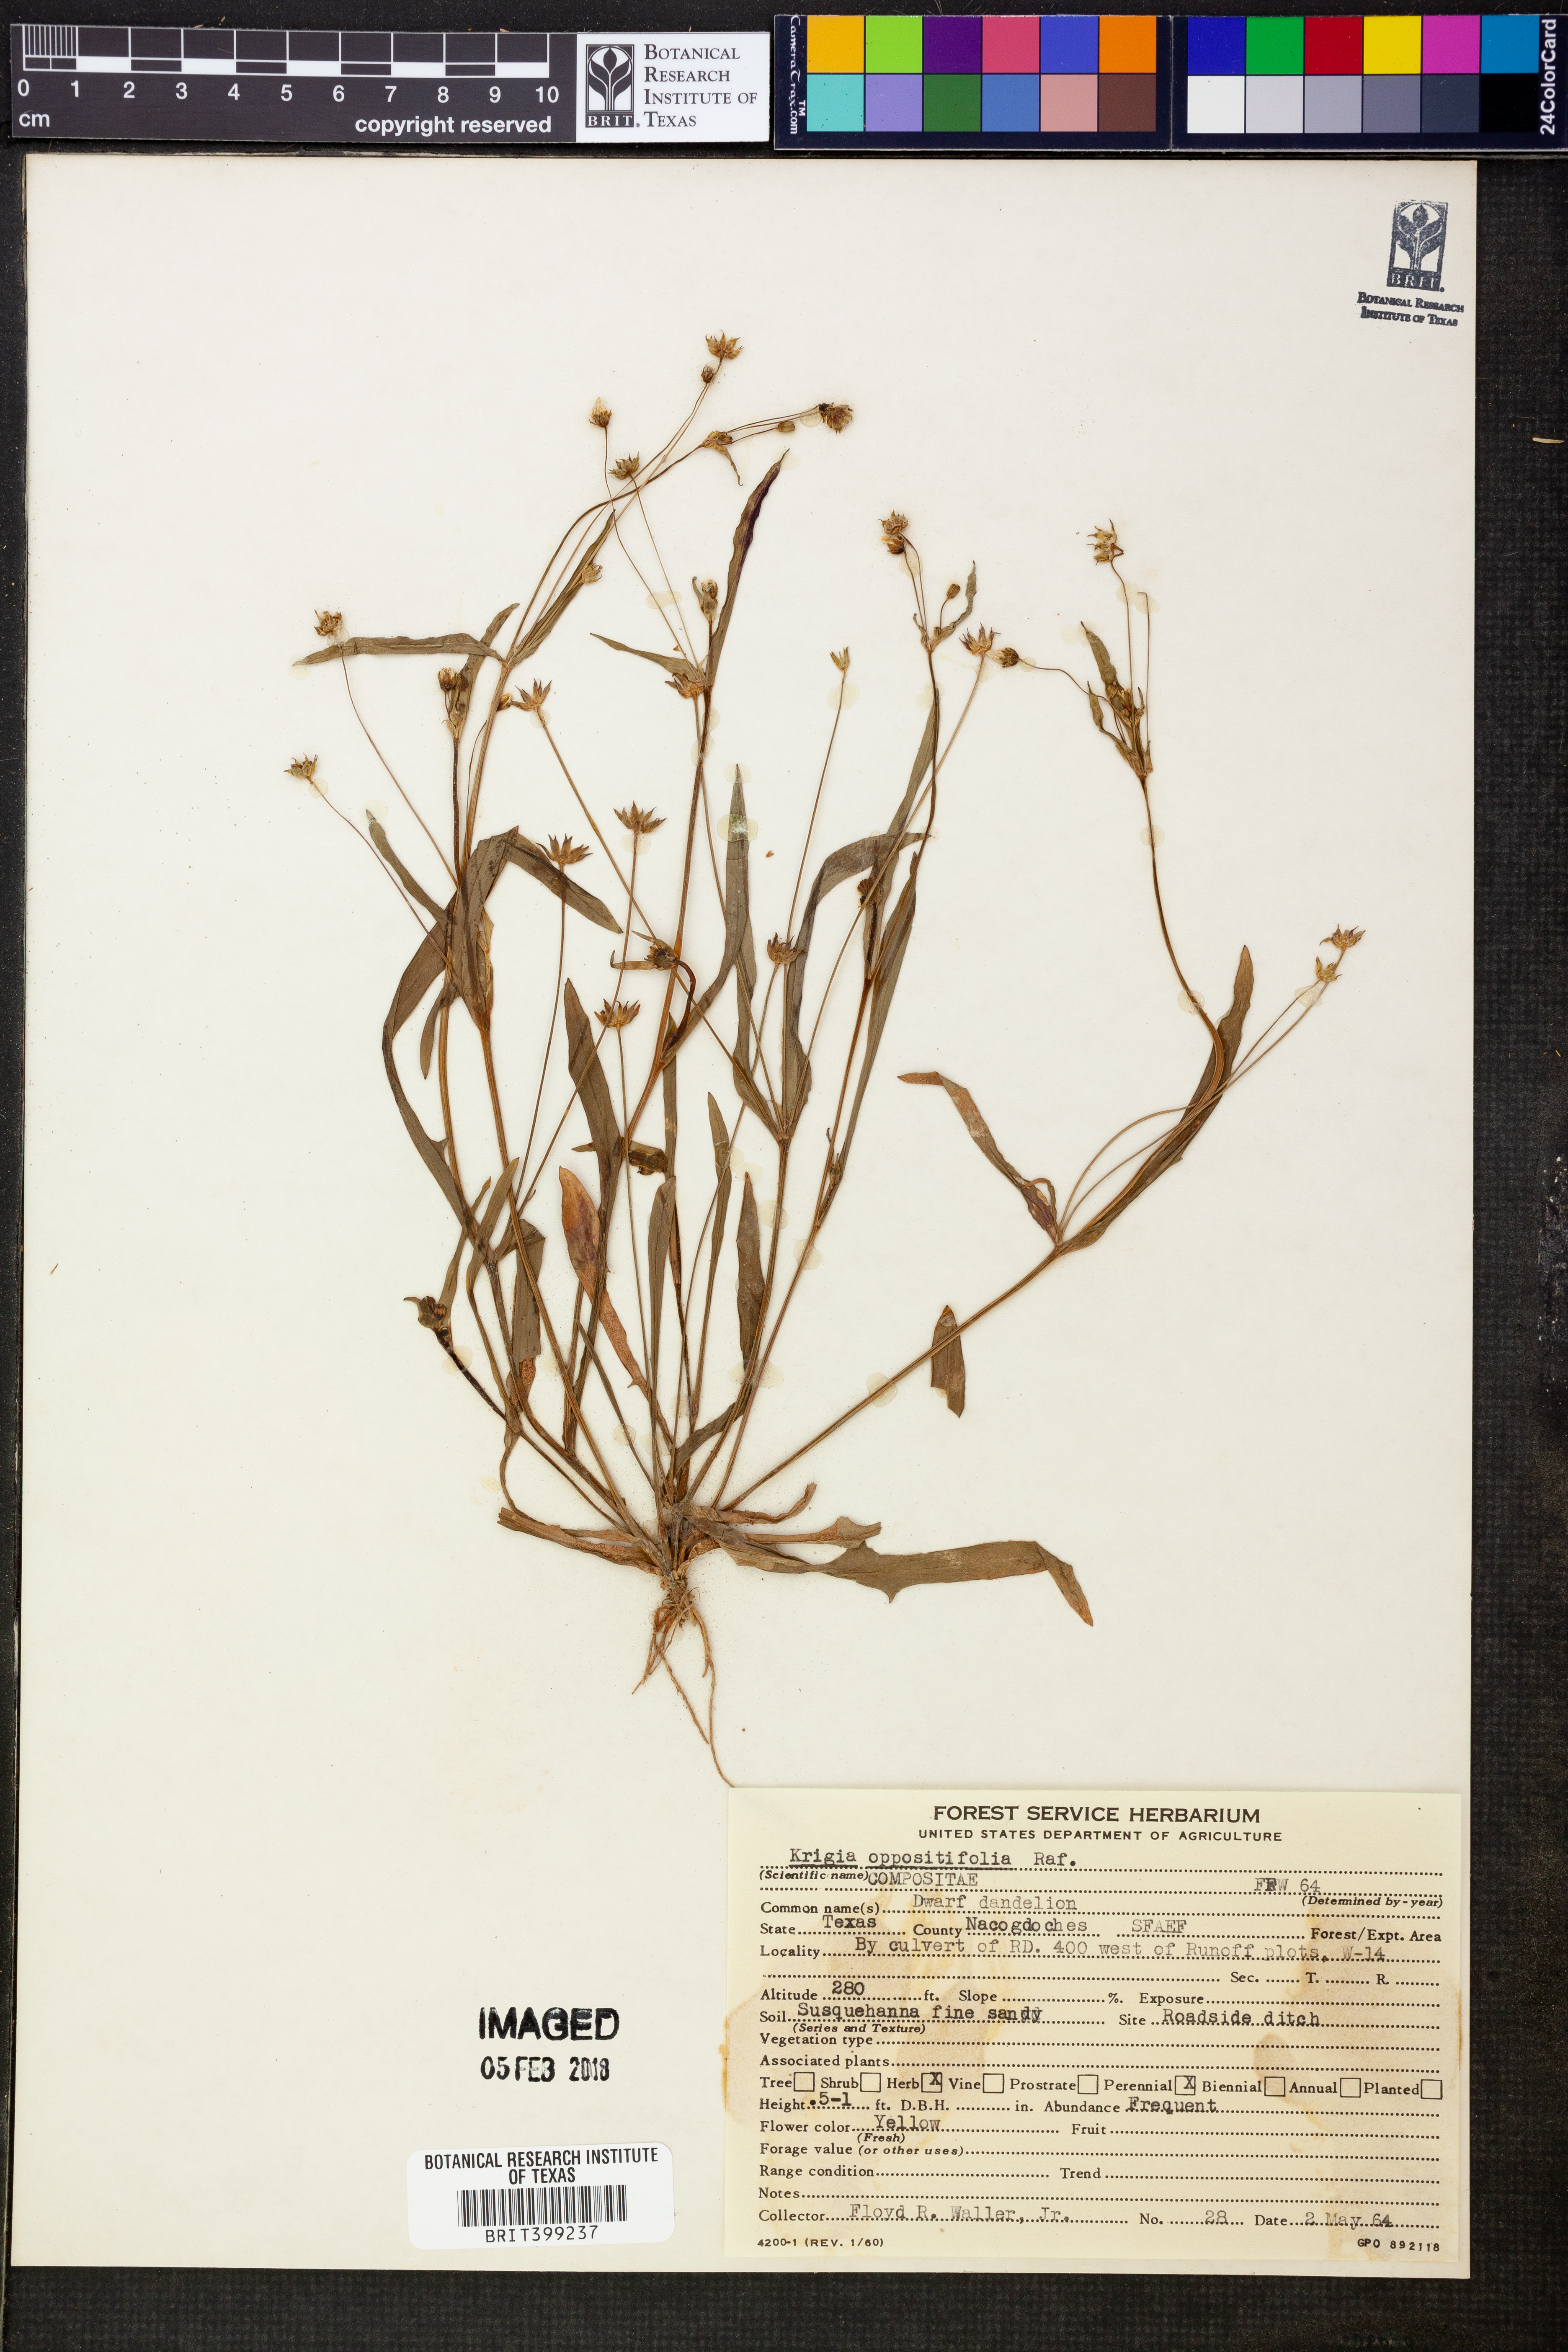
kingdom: Plantae
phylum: Tracheophyta
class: Magnoliopsida
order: Asterales
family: Asteraceae
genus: Krigia
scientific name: Krigia cespitosa
